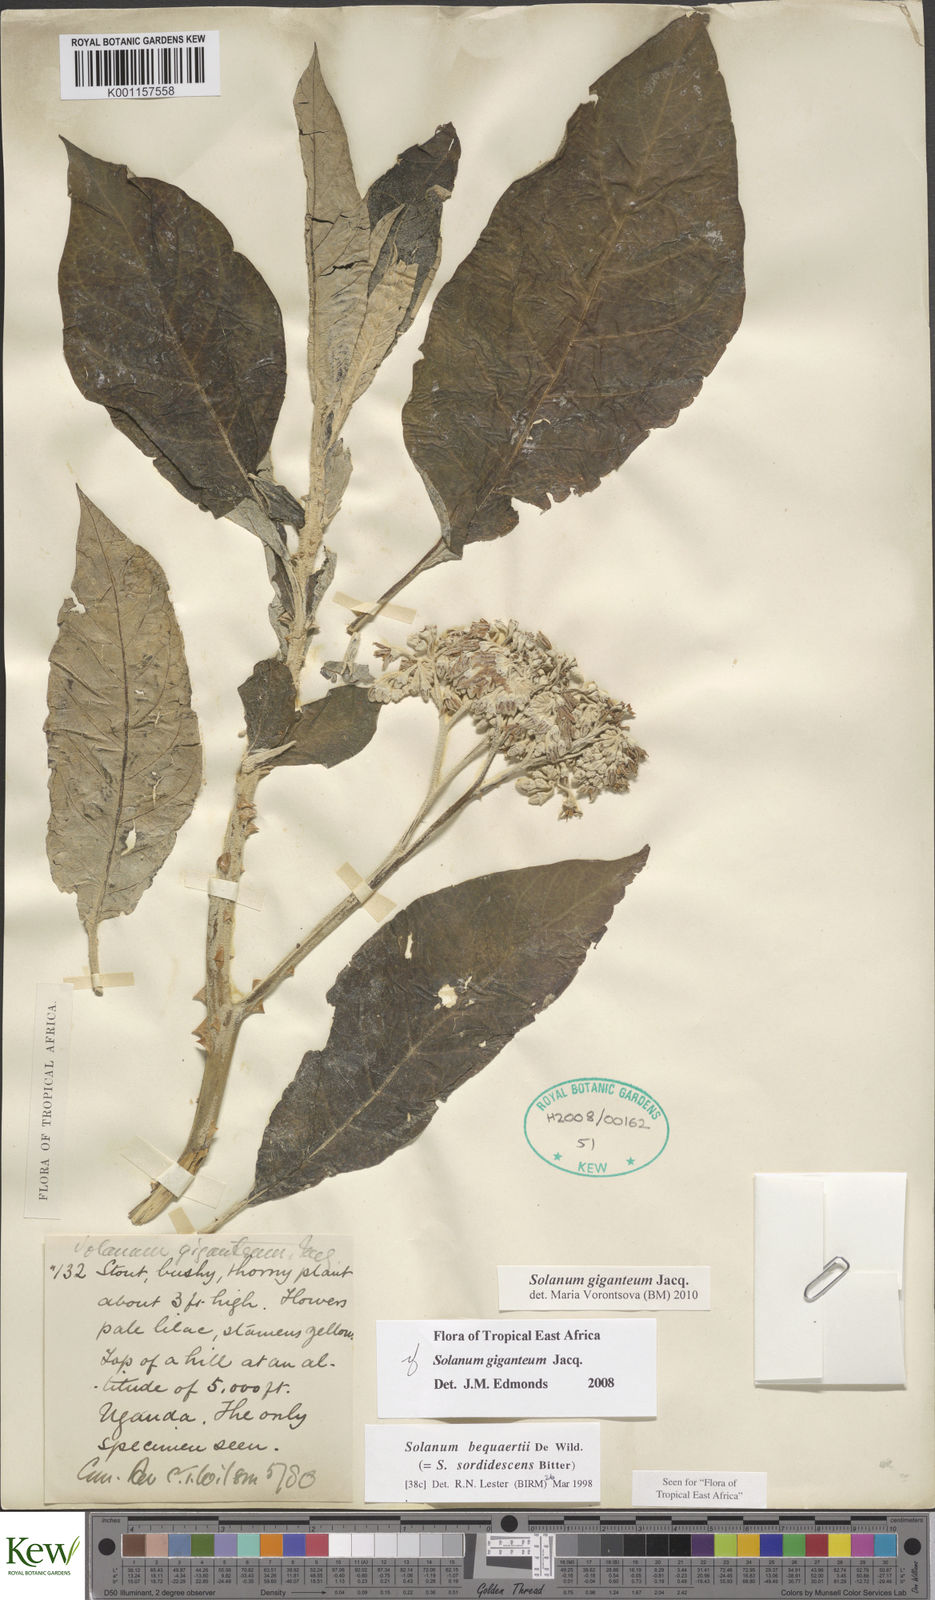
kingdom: Plantae
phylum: Tracheophyta
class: Magnoliopsida
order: Solanales
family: Solanaceae
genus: Solanum
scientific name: Solanum giganteum
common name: Healing-leaf-tree
